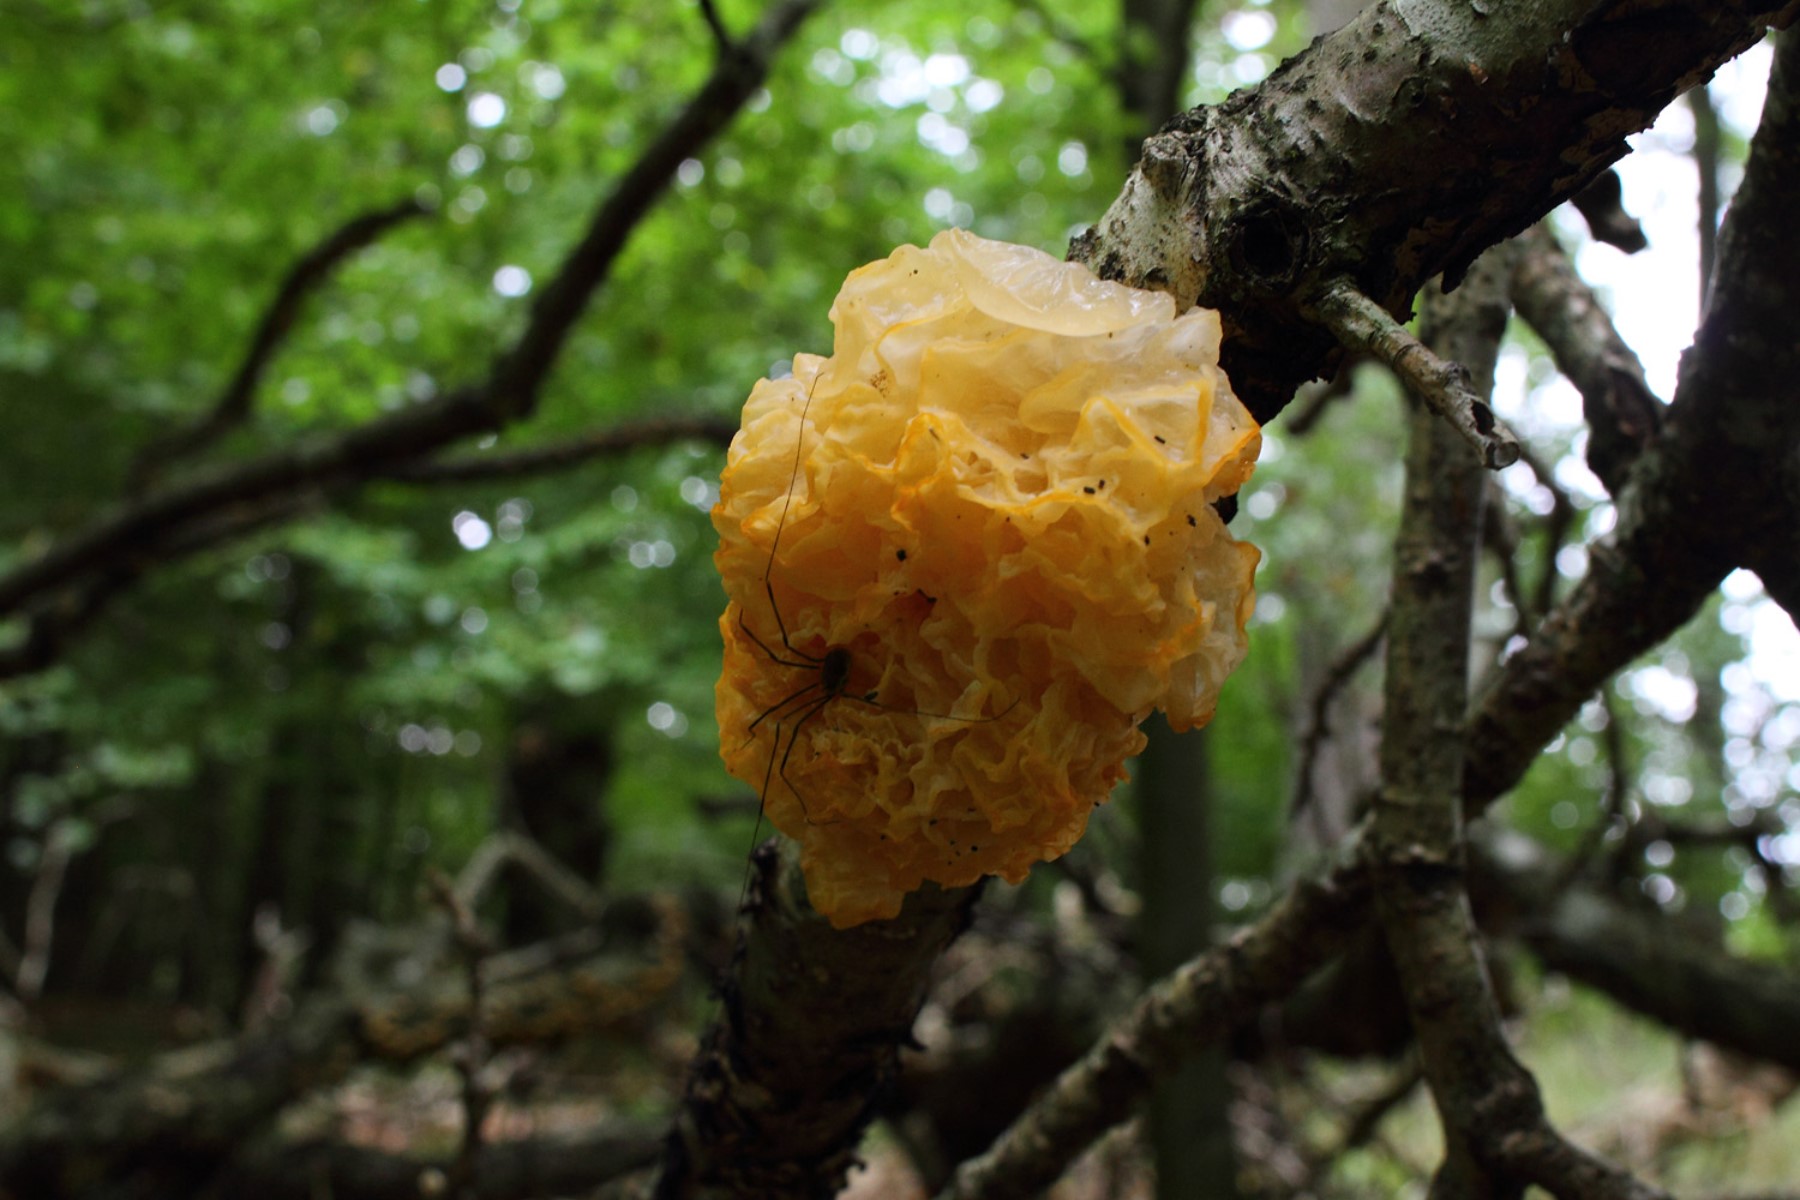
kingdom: Fungi
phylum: Basidiomycota
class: Tremellomycetes
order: Tremellales
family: Tremellaceae
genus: Tremella
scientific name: Tremella mesenterica
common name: gul bævresvamp
